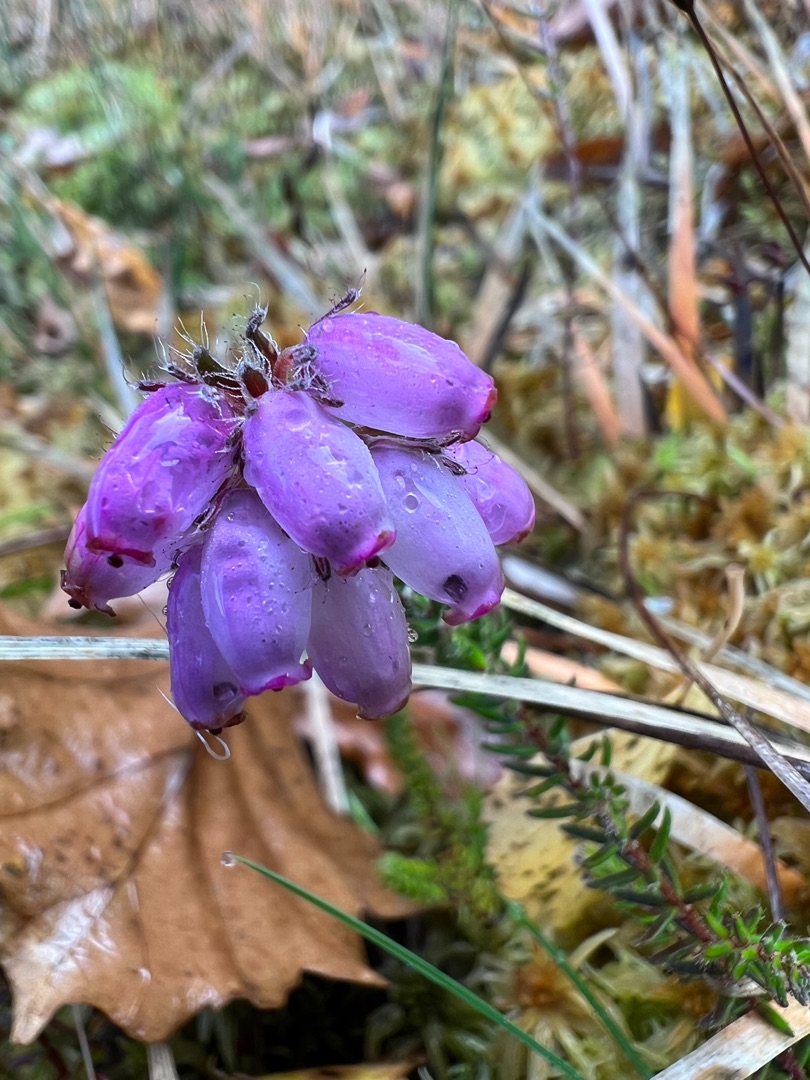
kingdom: Plantae
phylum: Tracheophyta
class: Magnoliopsida
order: Ericales
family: Ericaceae
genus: Erica
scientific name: Erica tetralix
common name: Klokkelyng
